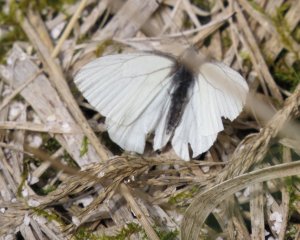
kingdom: Animalia
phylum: Arthropoda
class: Insecta
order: Lepidoptera
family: Pieridae
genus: Pieris
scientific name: Pieris oleracea
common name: Mustard White
